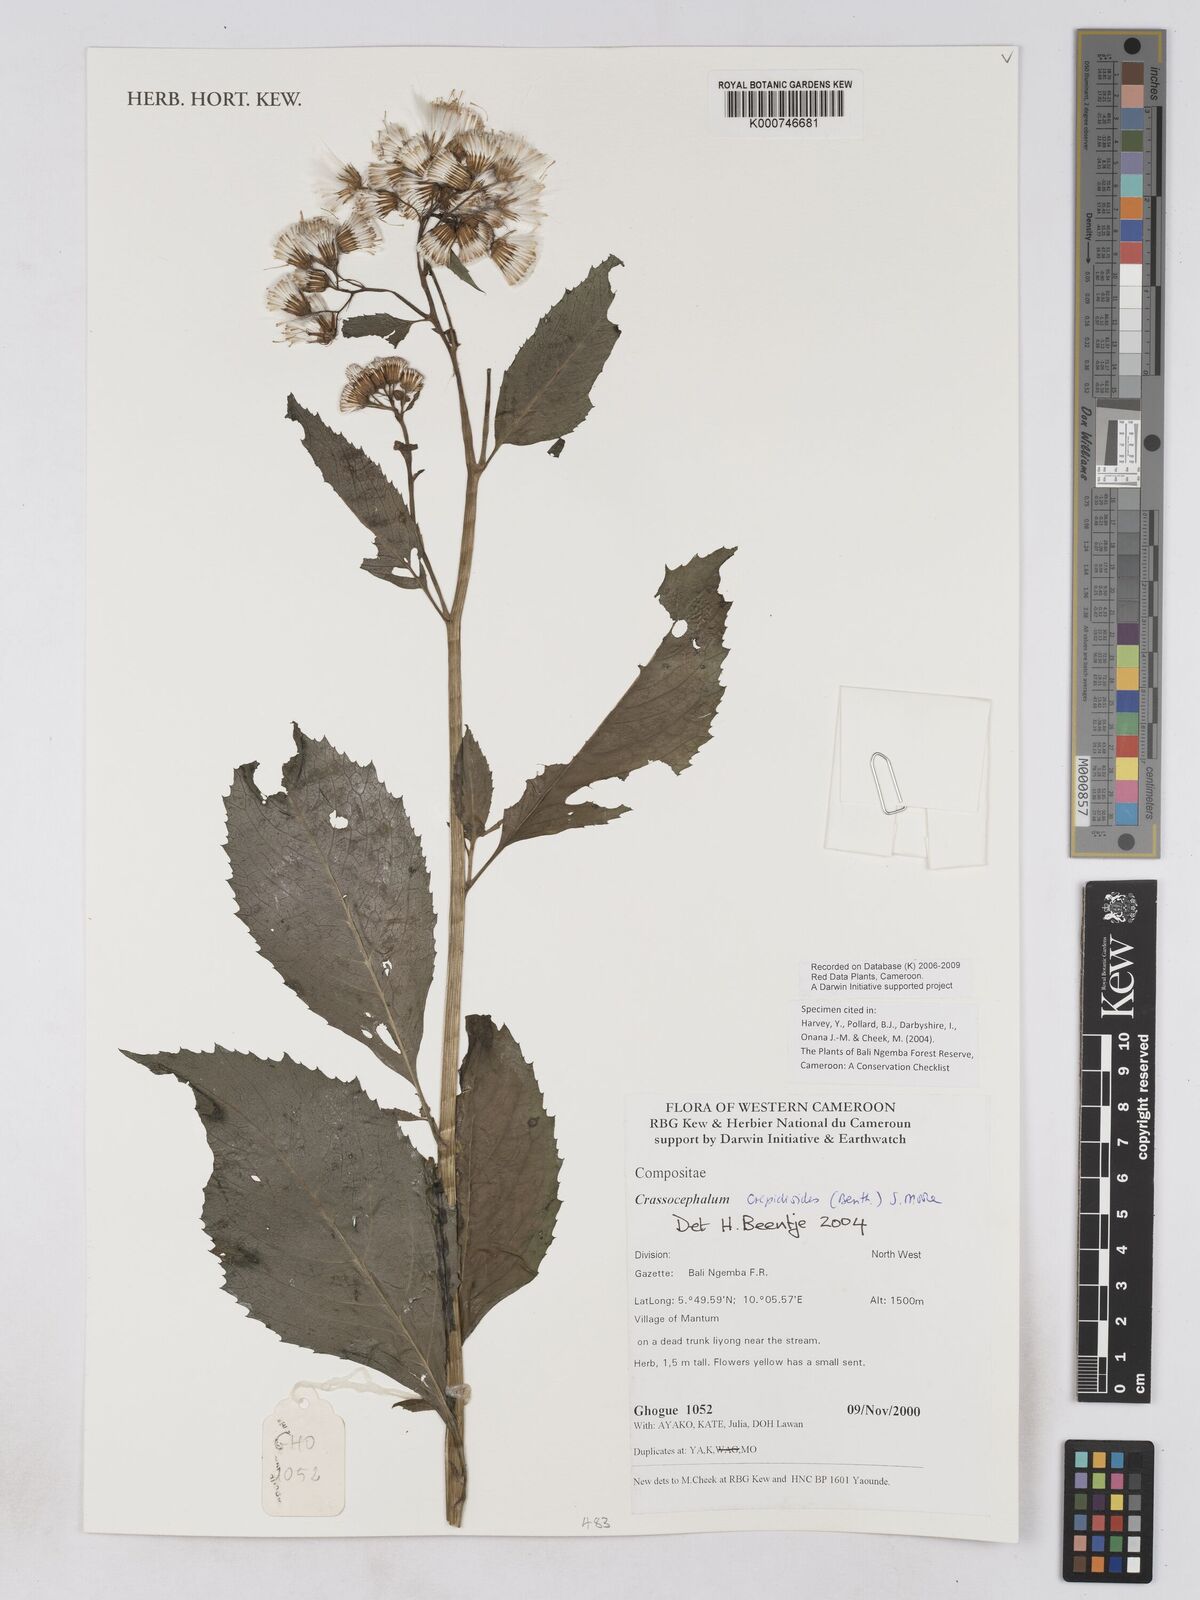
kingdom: Plantae
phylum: Tracheophyta
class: Magnoliopsida
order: Asterales
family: Asteraceae
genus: Crassocephalum
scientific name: Crassocephalum crepidioides
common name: Redflower ragleaf
